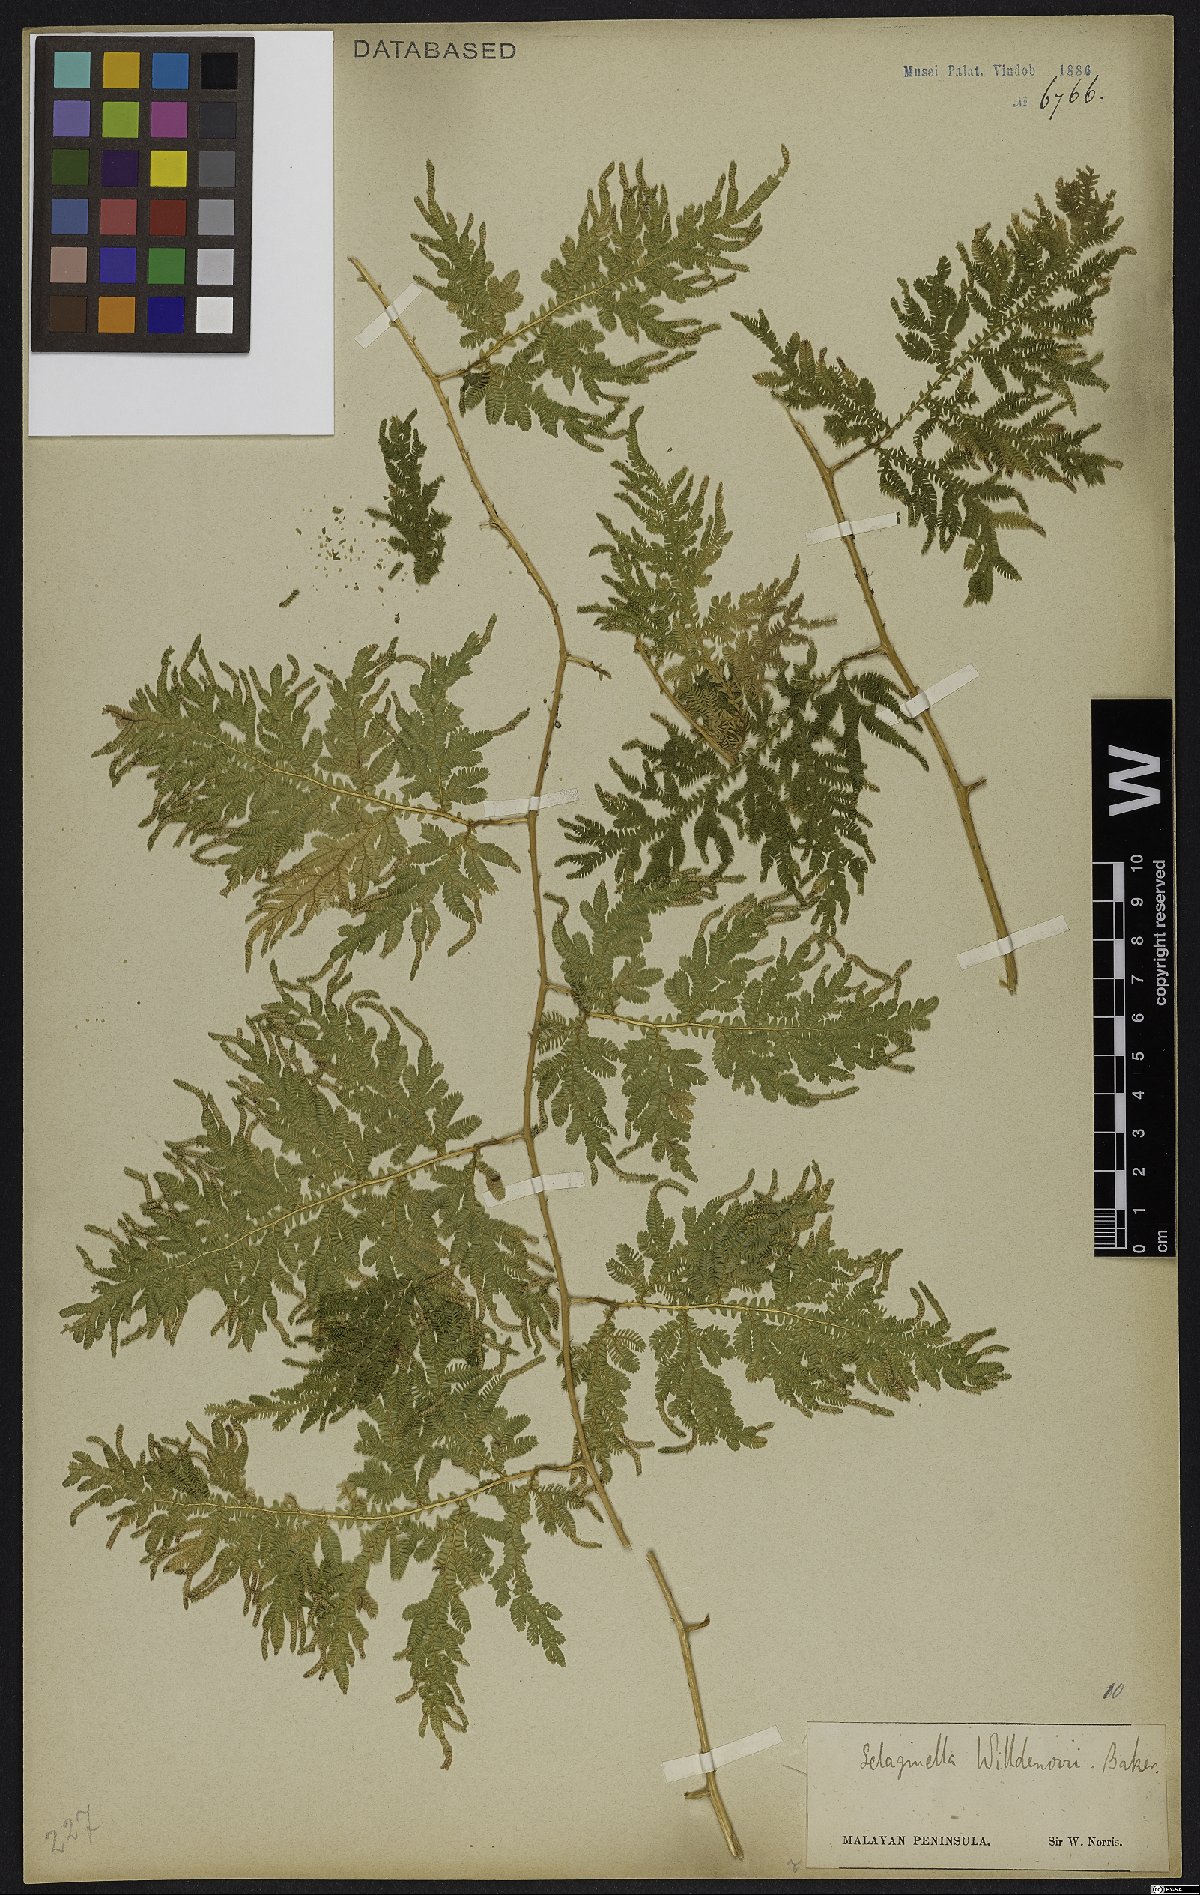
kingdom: Plantae
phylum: Tracheophyta
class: Lycopodiopsida
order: Selaginellales
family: Selaginellaceae
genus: Selaginella
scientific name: Selaginella willdenowii
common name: Willdenow's spikemoss
